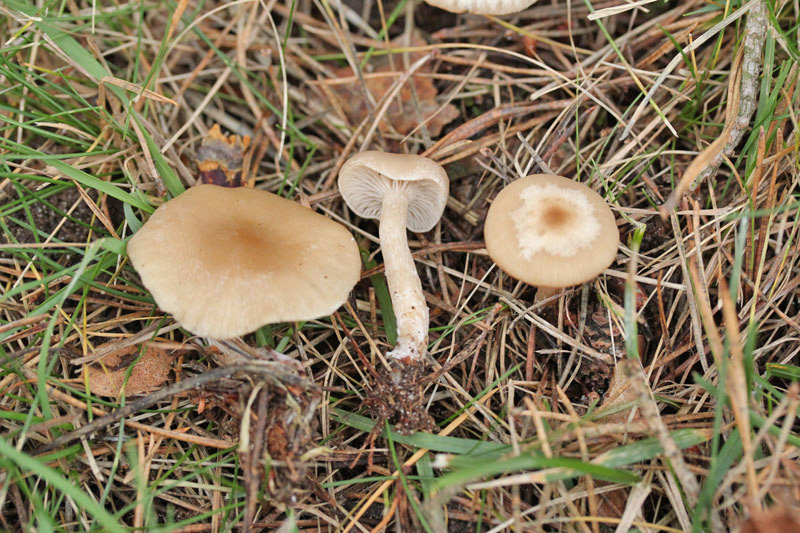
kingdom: Fungi
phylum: Basidiomycota
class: Agaricomycetes
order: Agaricales
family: Tricholomataceae
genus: Clitocybe
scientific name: Clitocybe fragrans
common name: vellugtende tragthat
